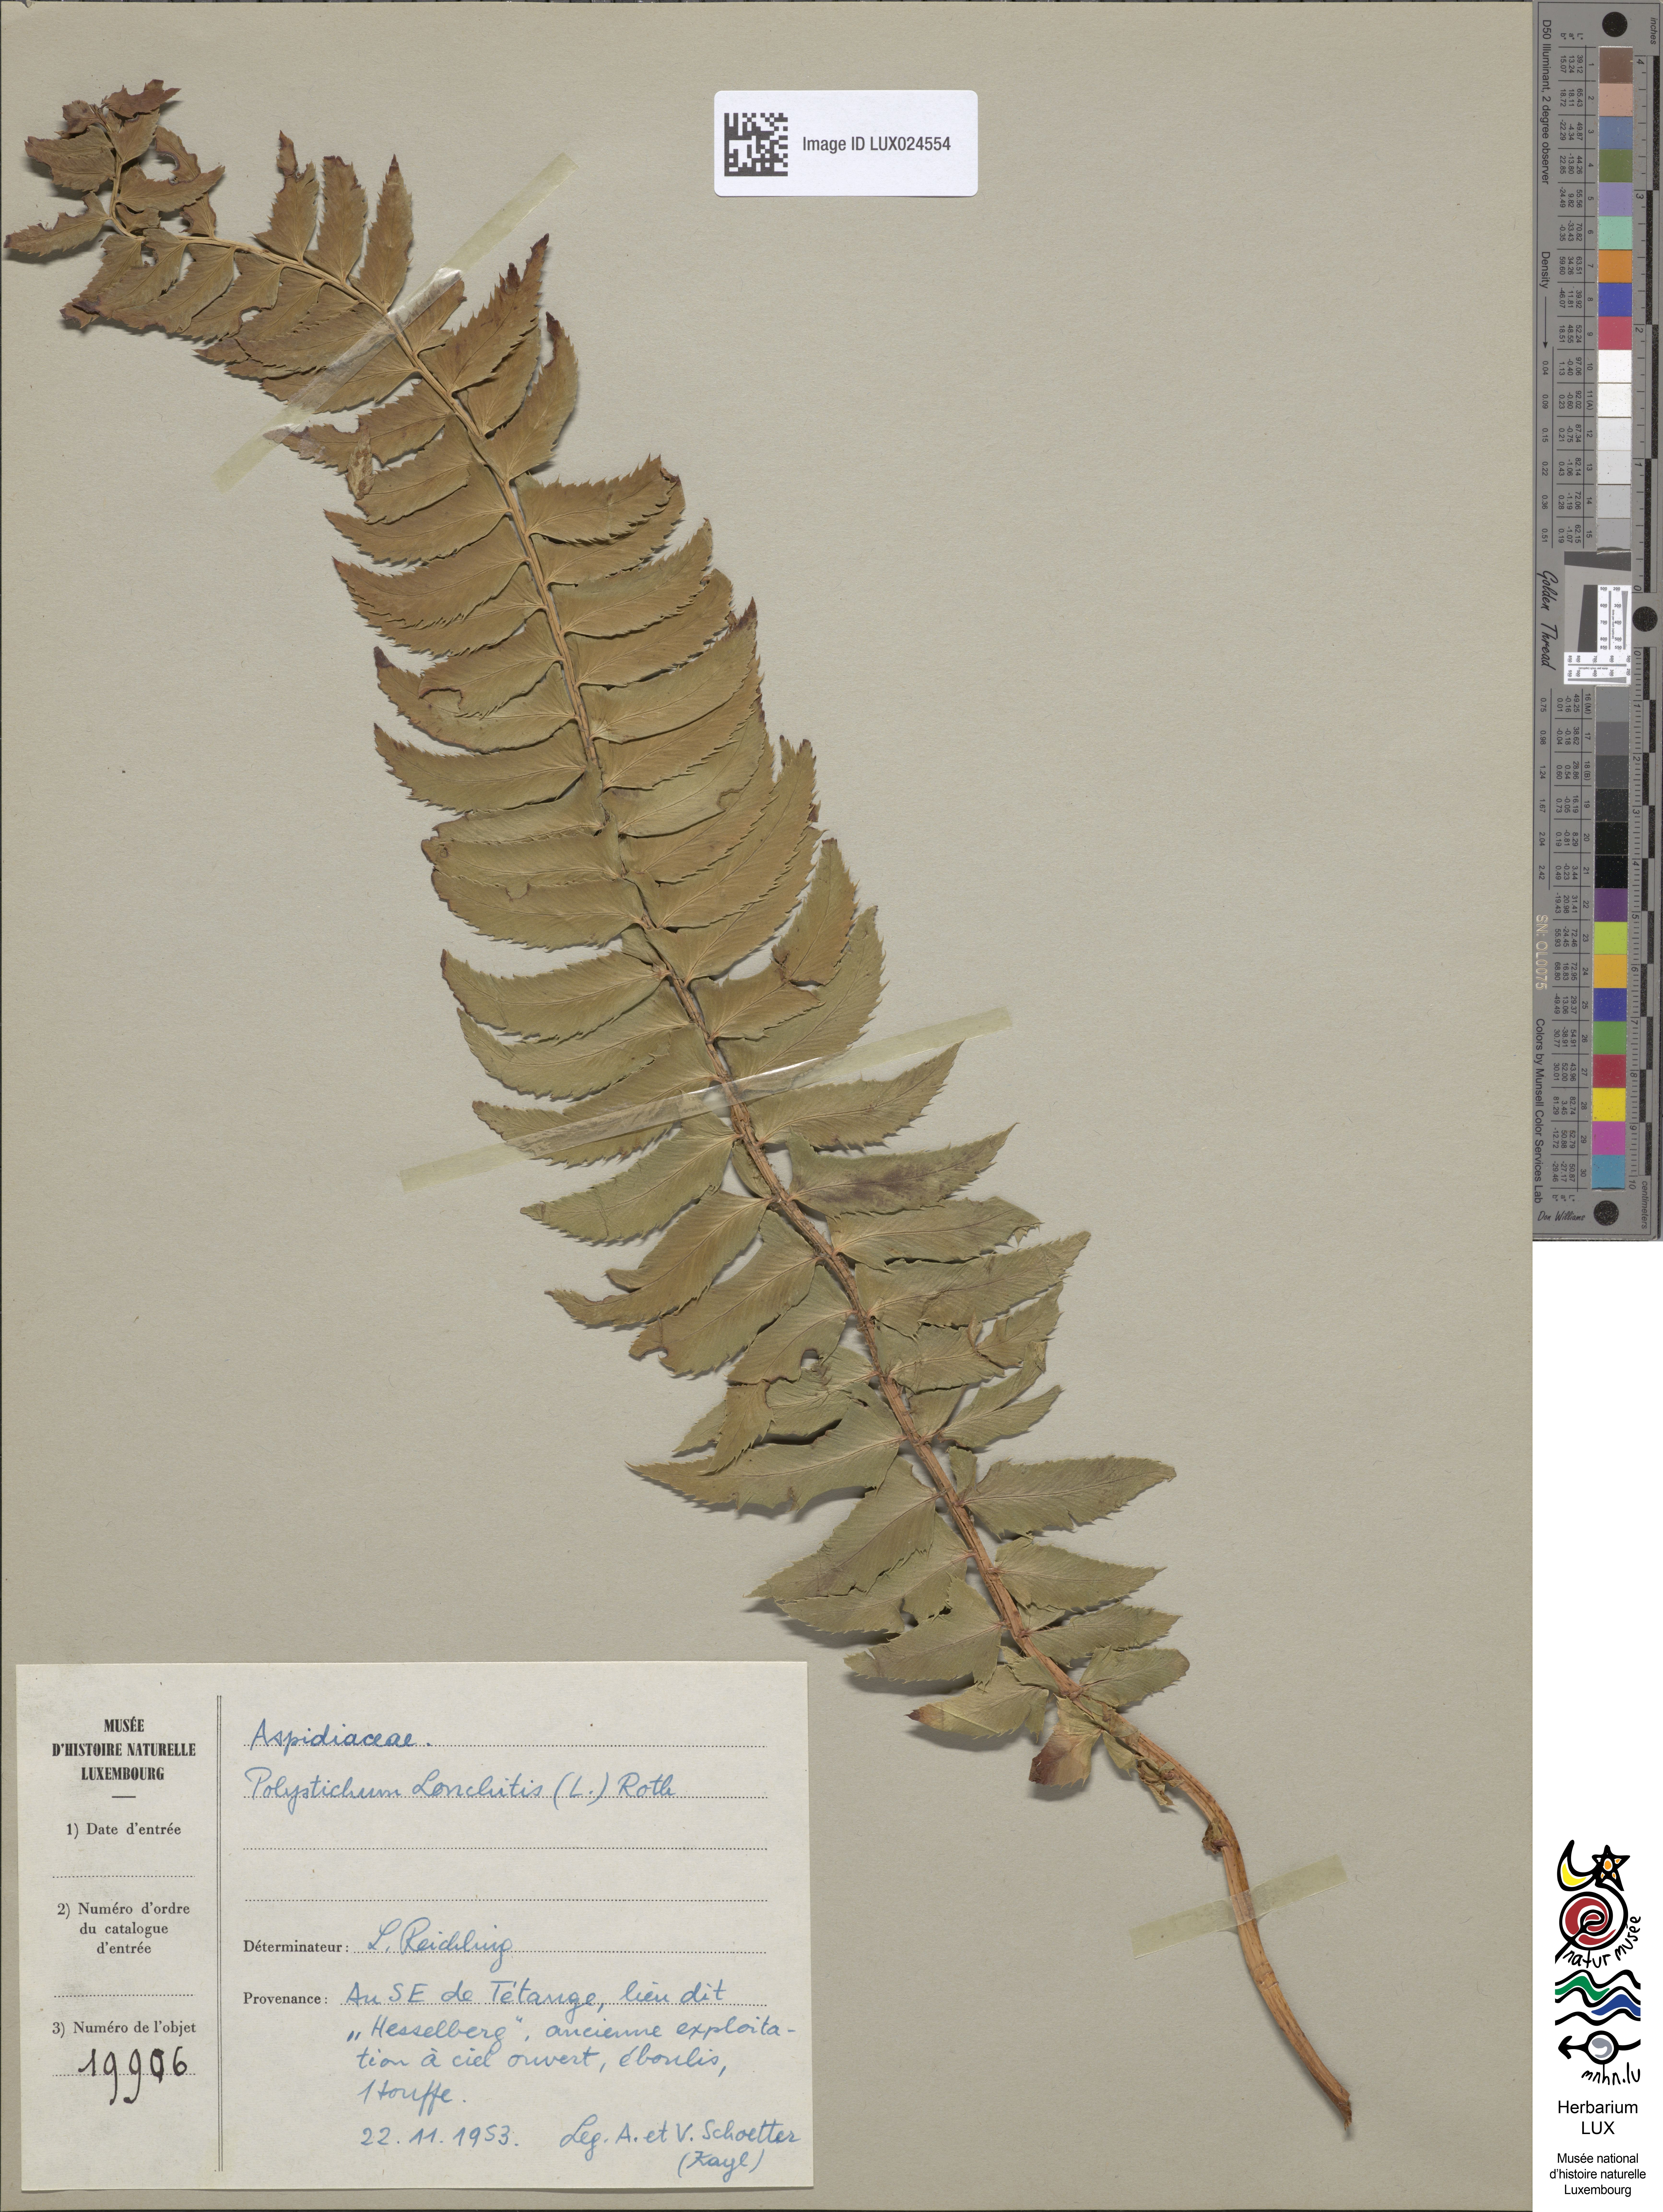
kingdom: Plantae
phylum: Tracheophyta
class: Polypodiopsida
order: Polypodiales
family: Dryopteridaceae
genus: Polystichum
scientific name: Polystichum lonchitis
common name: Holly fern
